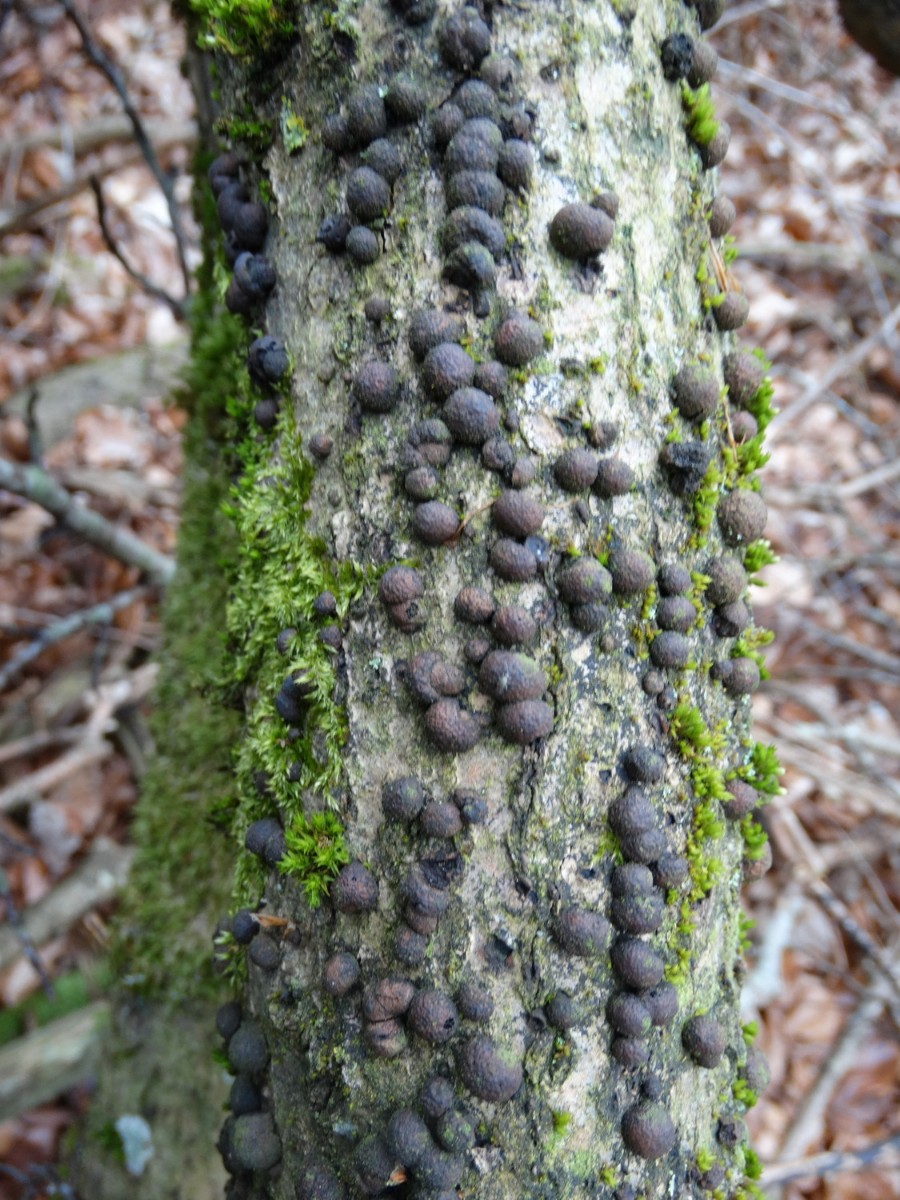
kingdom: Fungi
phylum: Ascomycota
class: Sordariomycetes
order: Xylariales
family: Hypoxylaceae
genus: Hypoxylon
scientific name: Hypoxylon fragiforme
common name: kuljordbær
